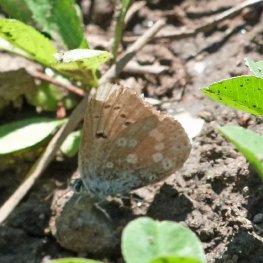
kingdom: Animalia
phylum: Arthropoda
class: Insecta
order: Lepidoptera
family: Lycaenidae
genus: Icaricia
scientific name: Icaricia icarioides
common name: Boisduval's Blue
